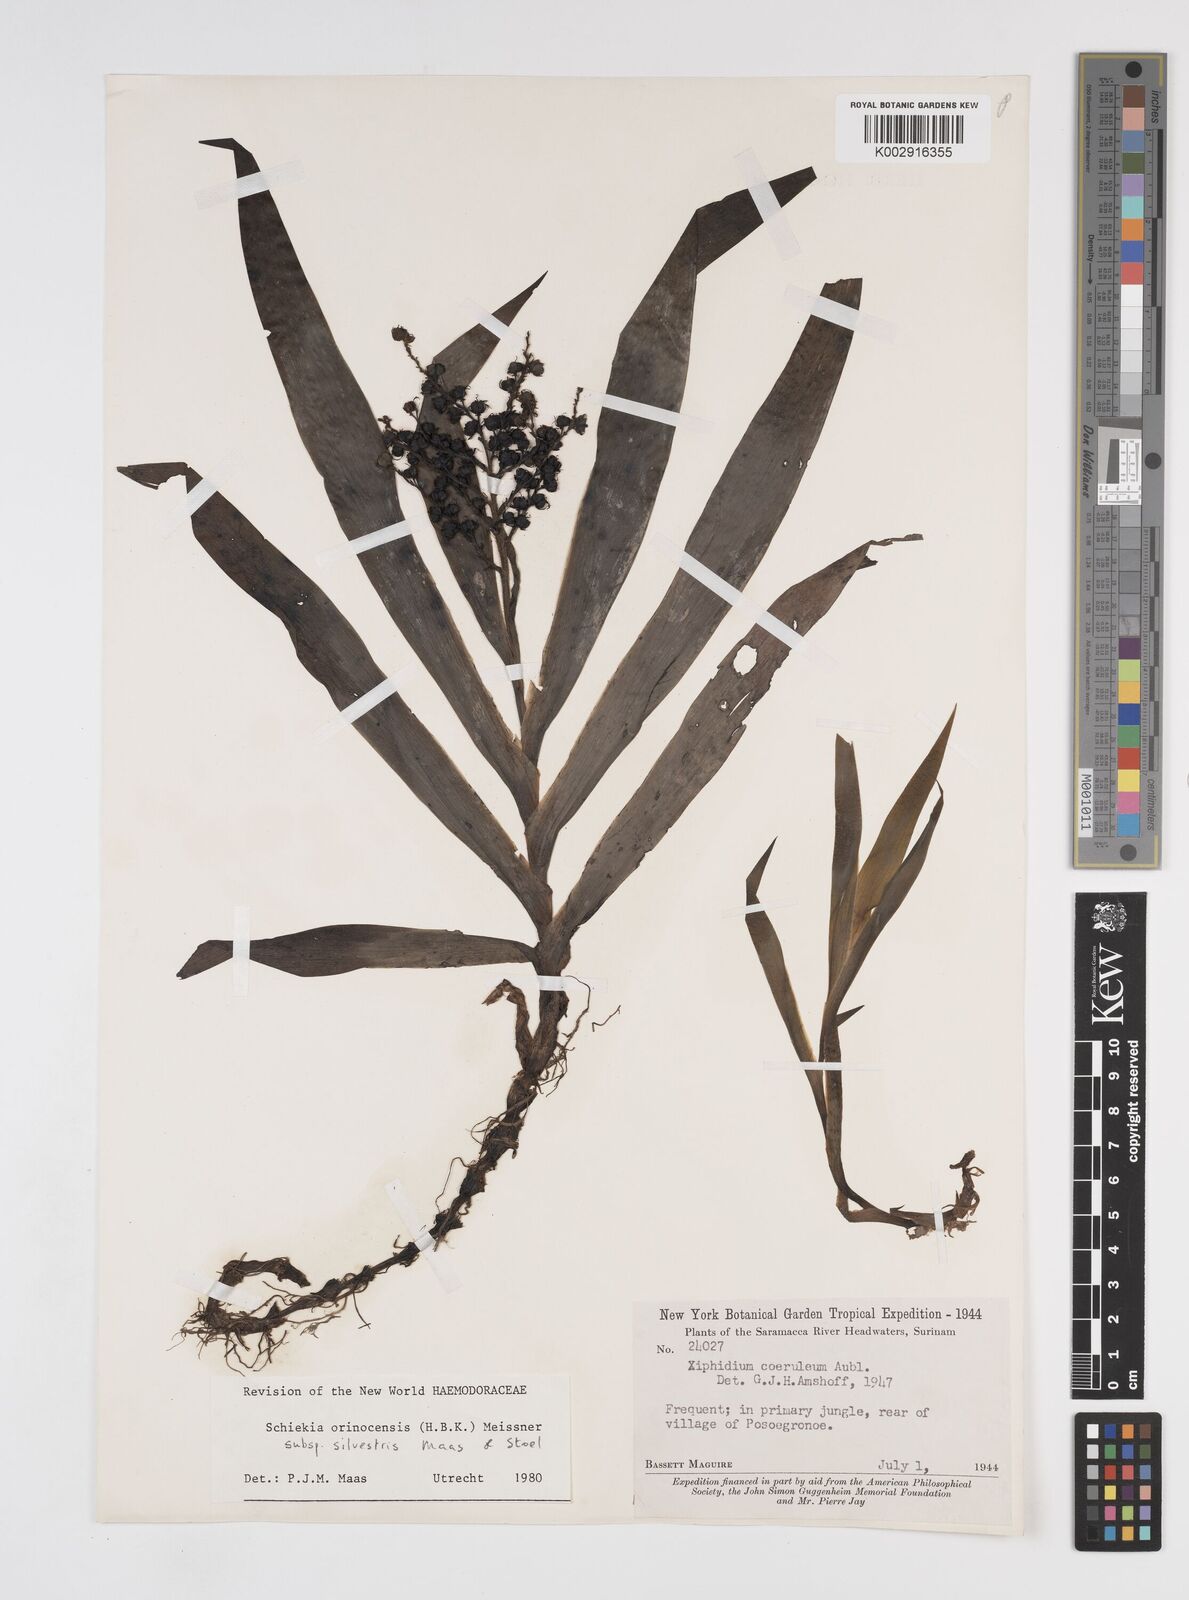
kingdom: Plantae
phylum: Tracheophyta
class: Liliopsida
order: Commelinales
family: Haemodoraceae
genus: Schiekia
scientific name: Schiekia silvestris
